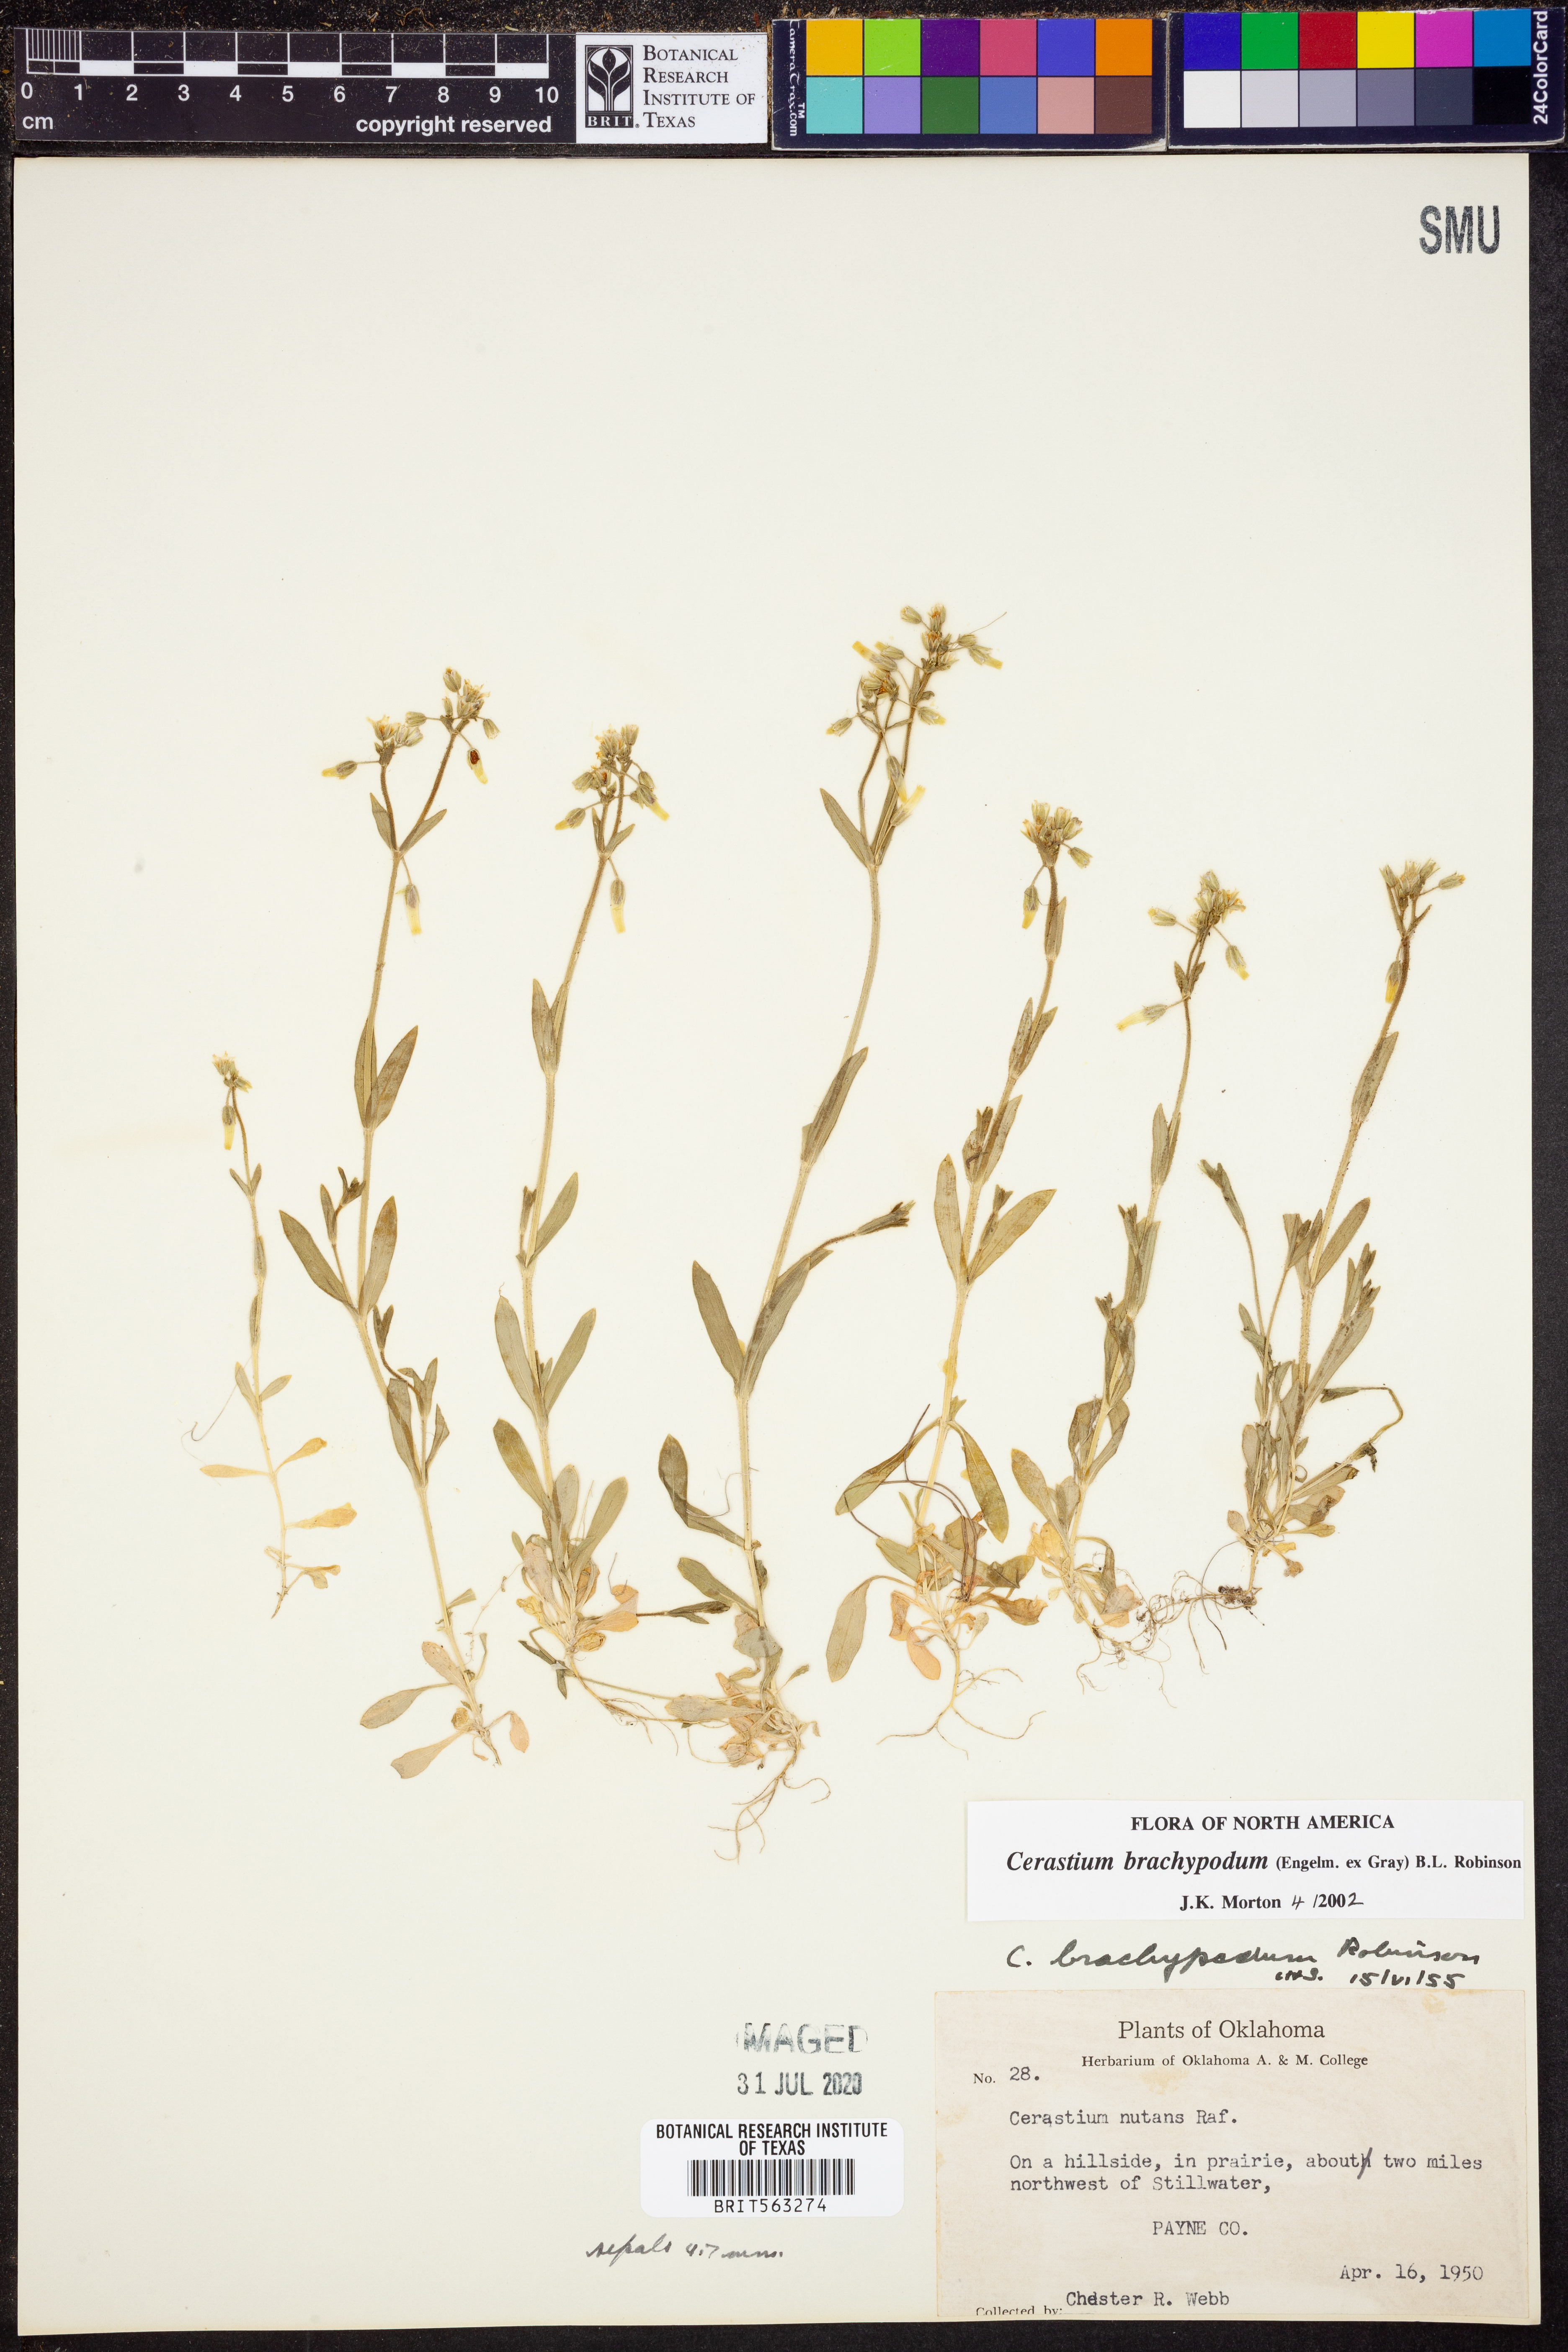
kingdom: Plantae
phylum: Tracheophyta
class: Magnoliopsida
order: Caryophyllales
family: Caryophyllaceae
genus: Cerastium
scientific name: Cerastium brachypodum
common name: Short-pedicelled nodding chickweed
